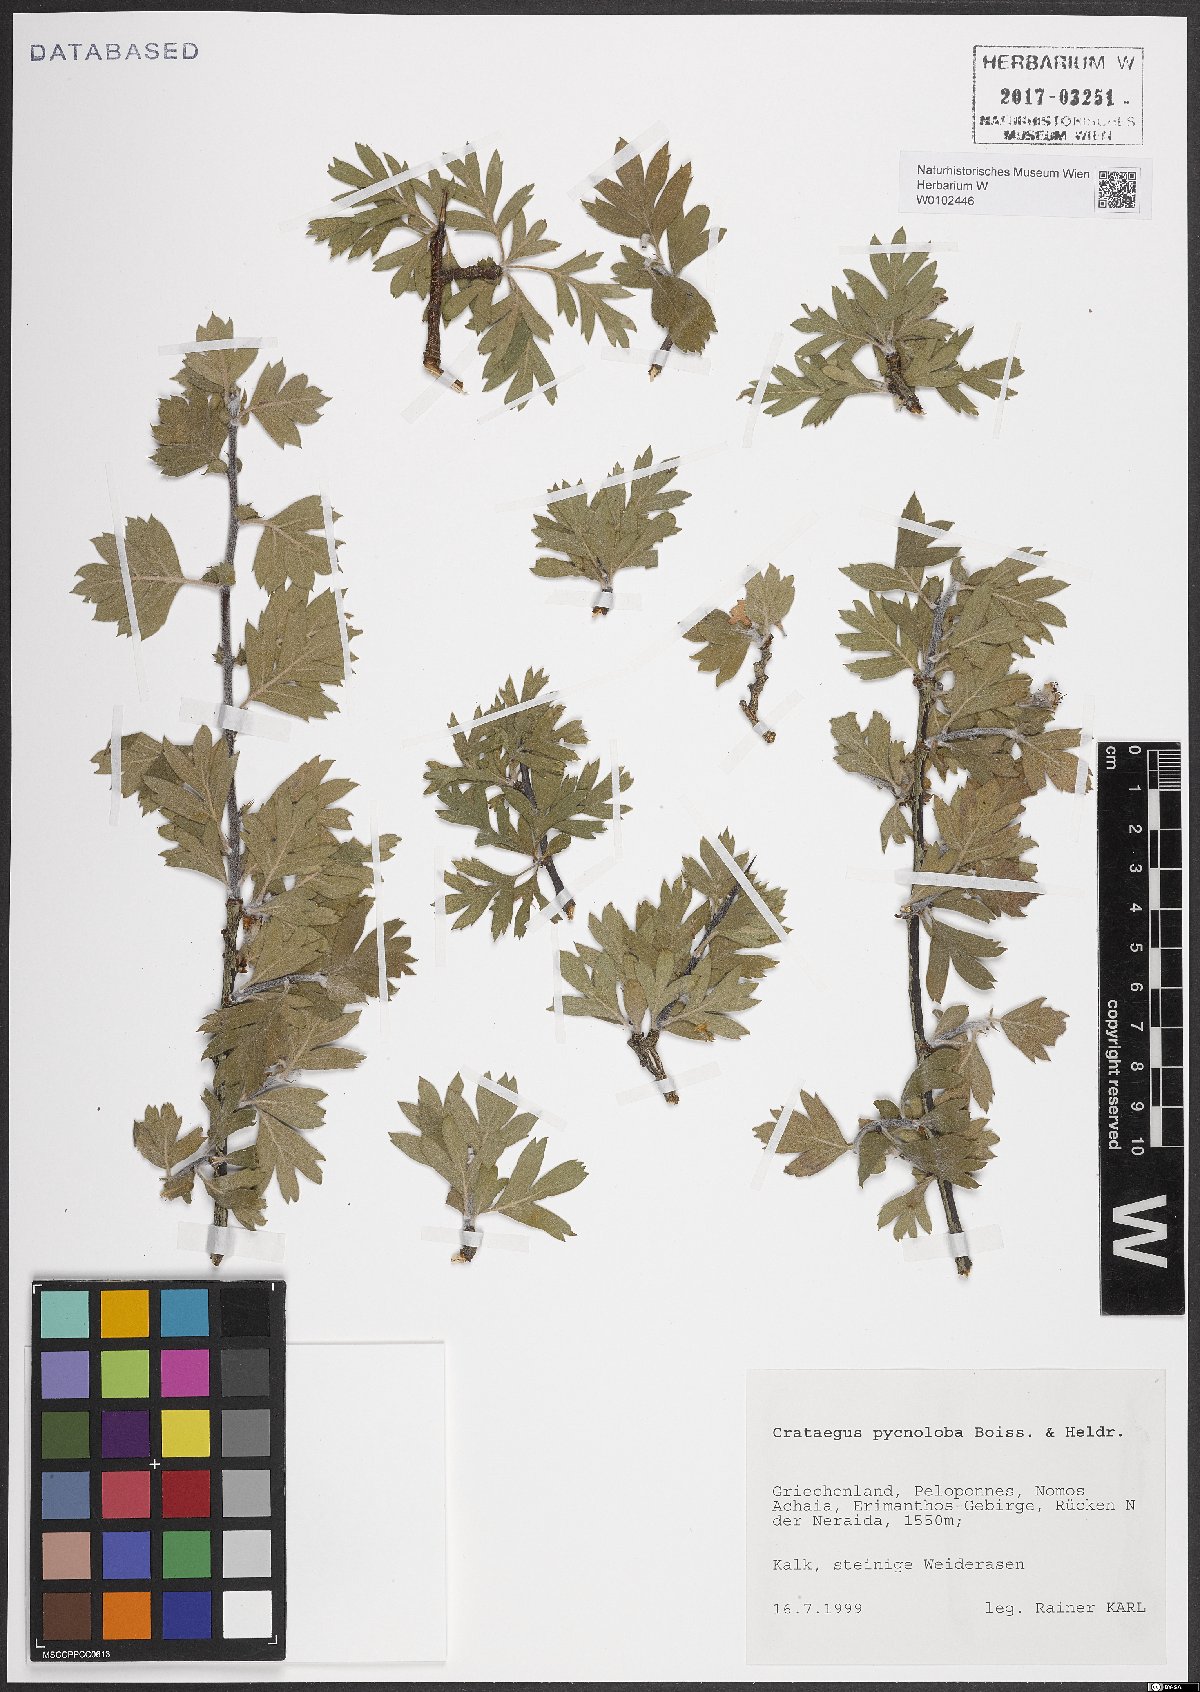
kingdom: Plantae
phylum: Tracheophyta
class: Magnoliopsida
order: Rosales
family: Rosaceae
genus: Crataegus
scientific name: Crataegus pycnoloba
